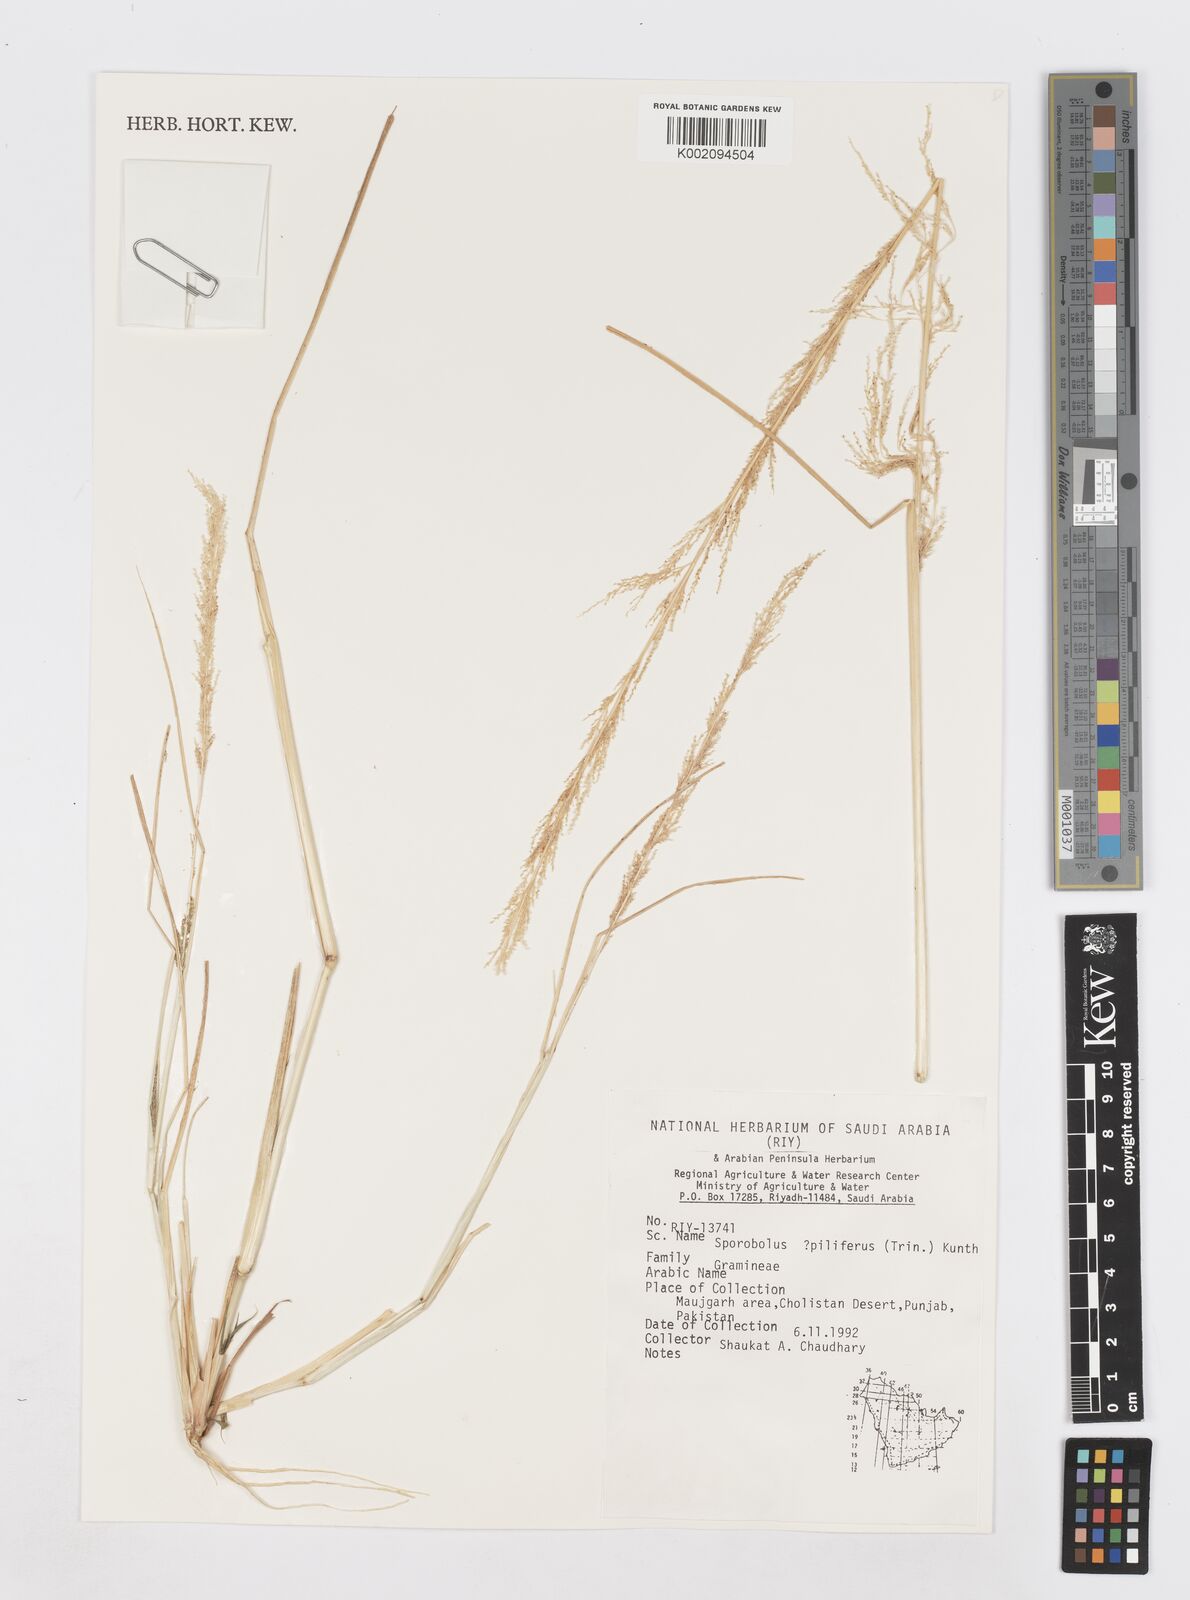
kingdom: Plantae
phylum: Tracheophyta
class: Liliopsida
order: Poales
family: Poaceae
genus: Sporobolus
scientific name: Sporobolus pilifer
